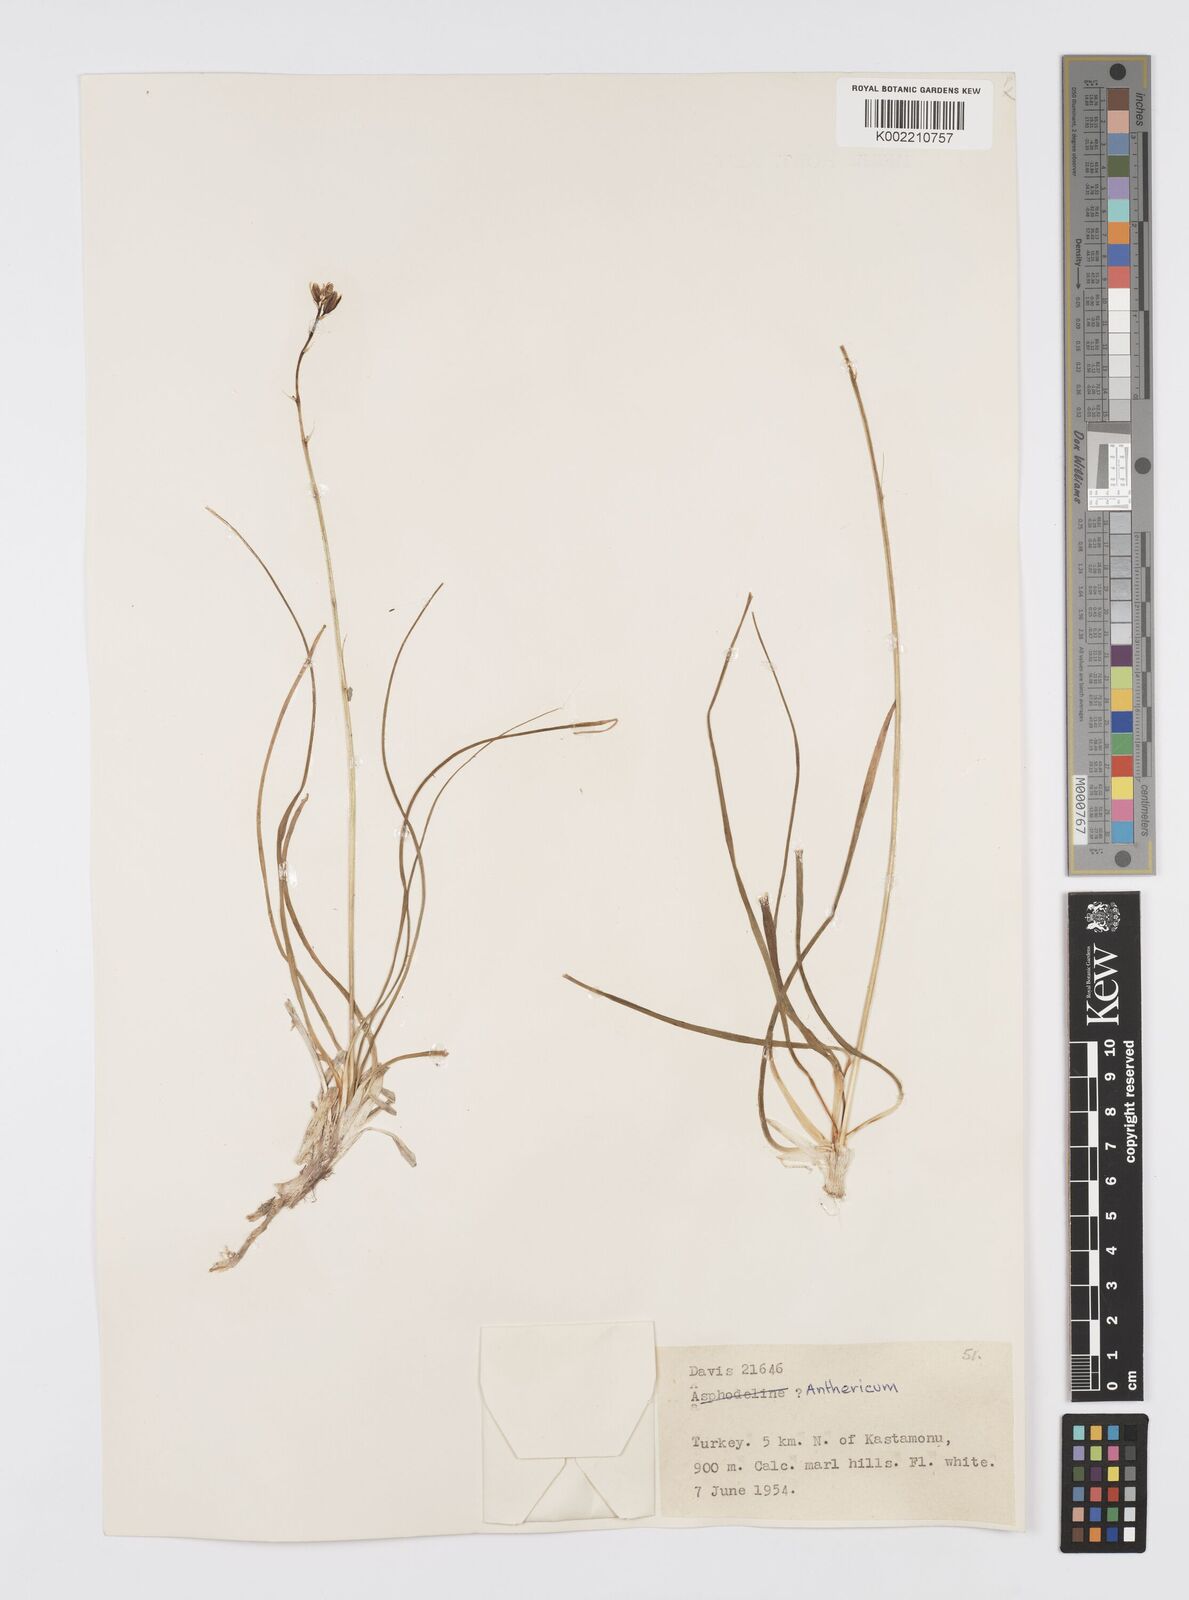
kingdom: Plantae
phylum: Tracheophyta
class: Liliopsida
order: Asparagales
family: Asphodelaceae
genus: Asphodeline
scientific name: Asphodeline
